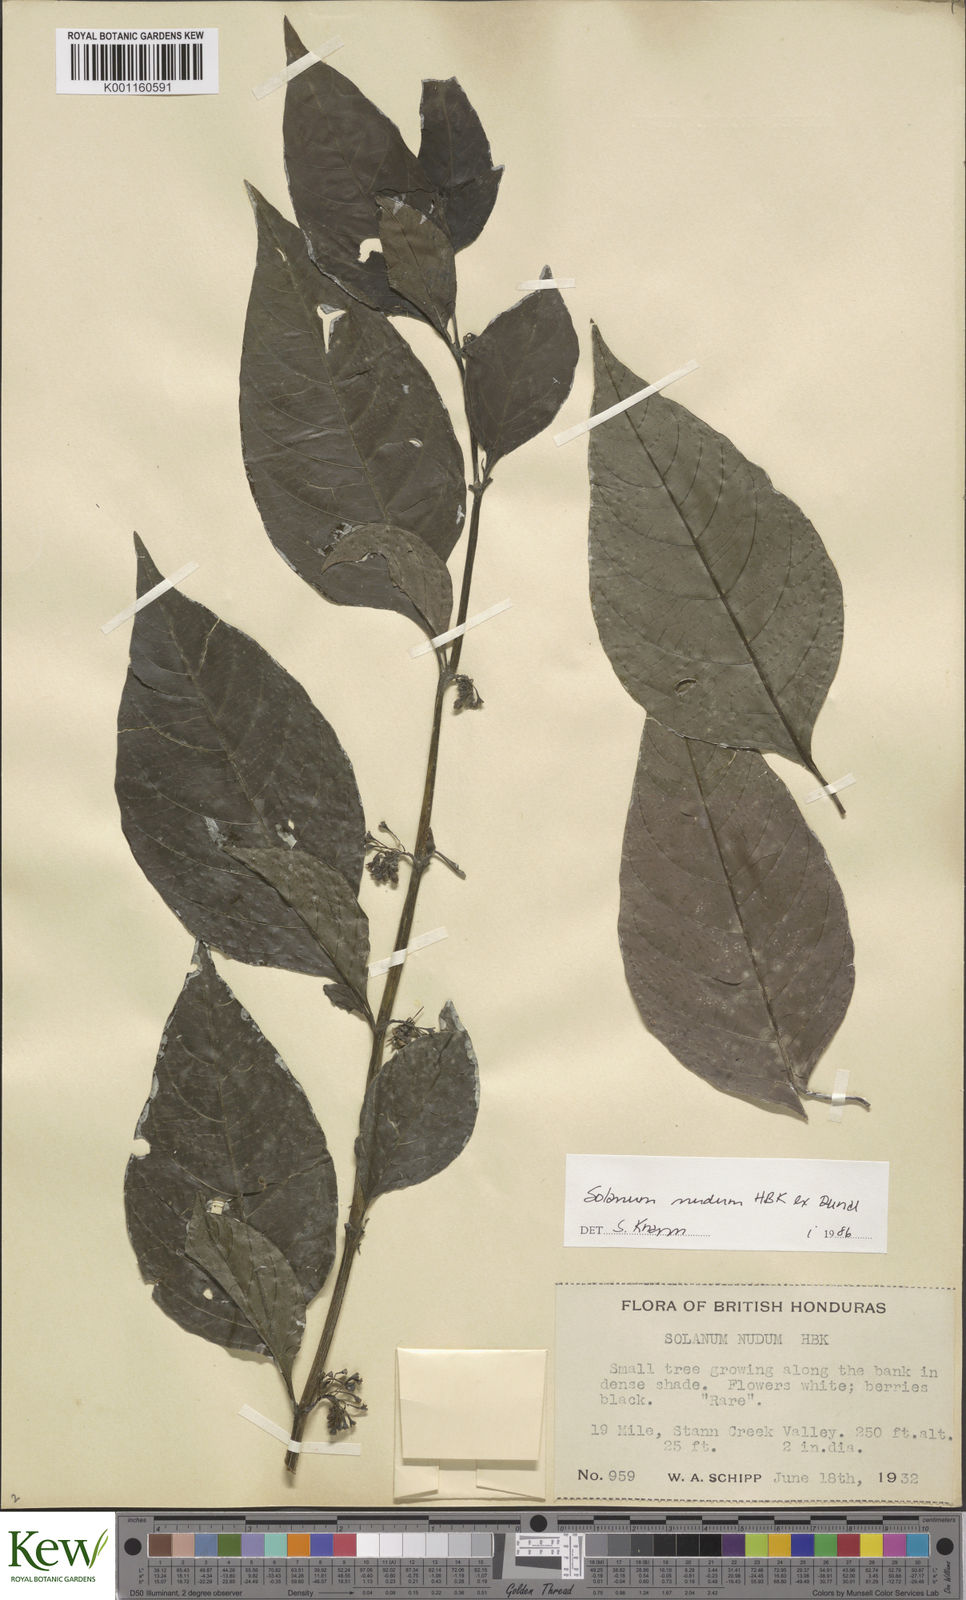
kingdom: Plantae
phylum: Tracheophyta
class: Magnoliopsida
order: Solanales
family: Solanaceae
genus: Solanum
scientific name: Solanum nudum
